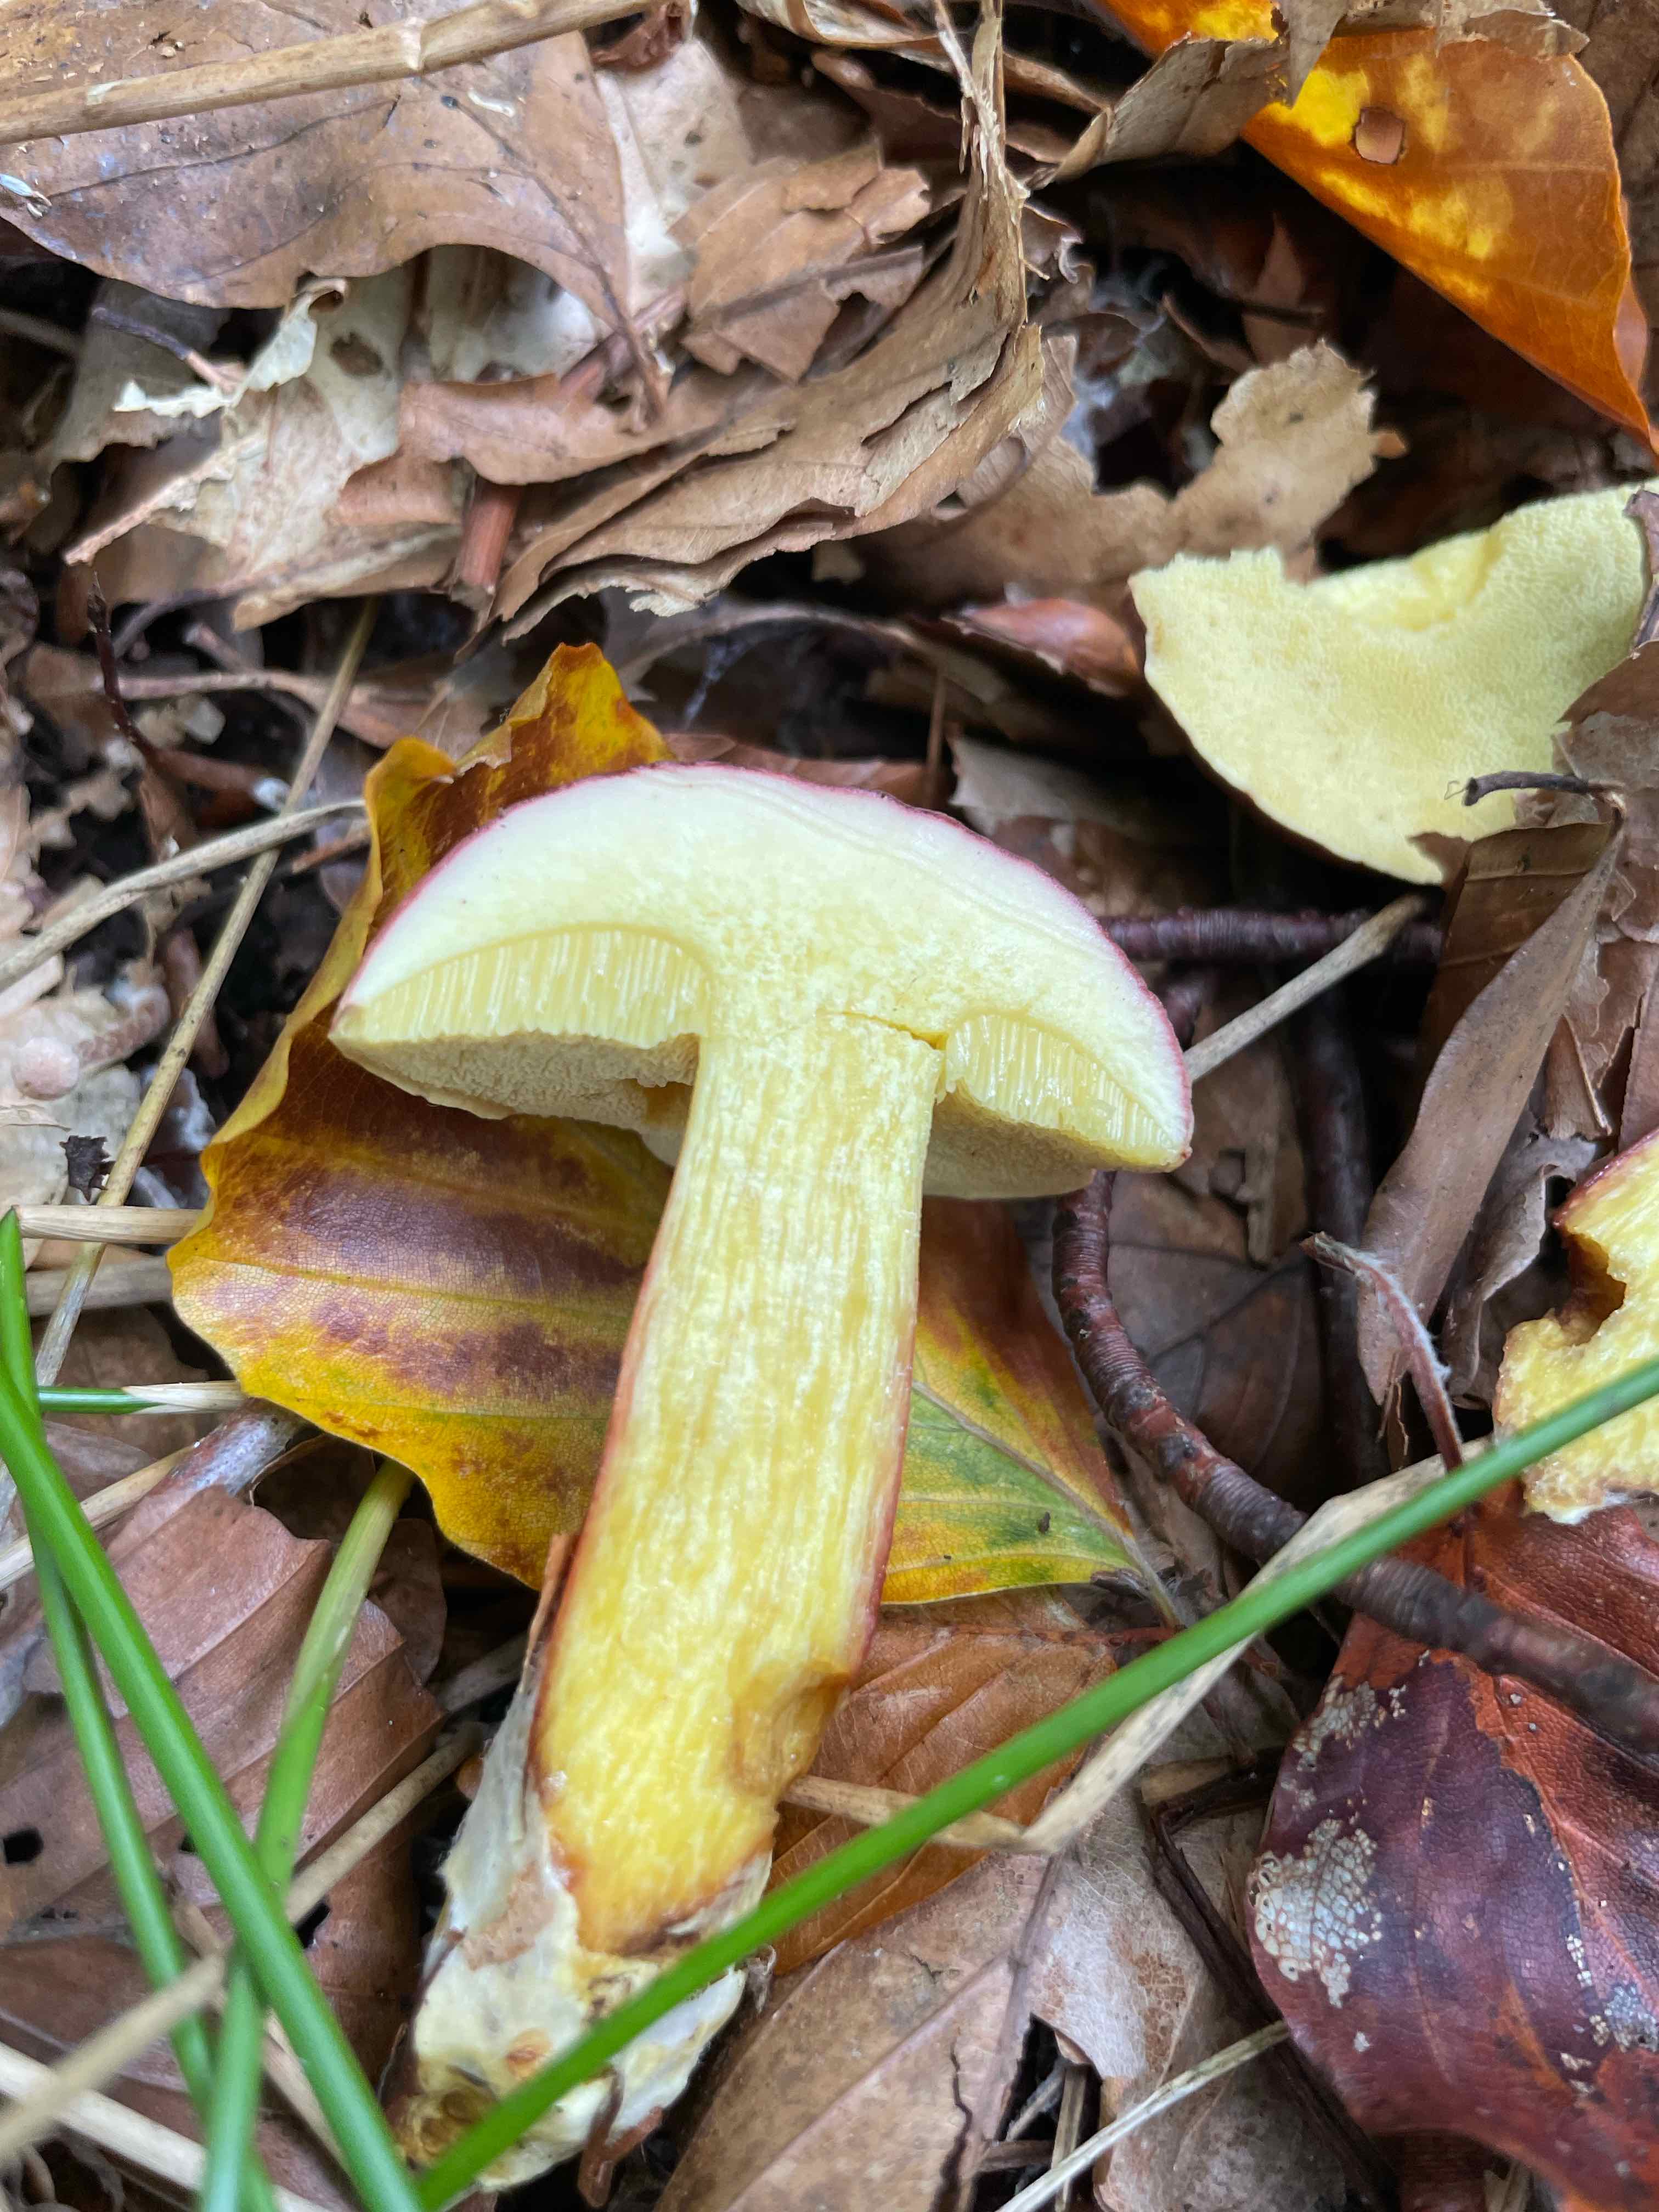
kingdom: Fungi
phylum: Basidiomycota
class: Agaricomycetes
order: Boletales
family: Boletaceae
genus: Xerocomellus
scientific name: Xerocomellus
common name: dværgrørhat
